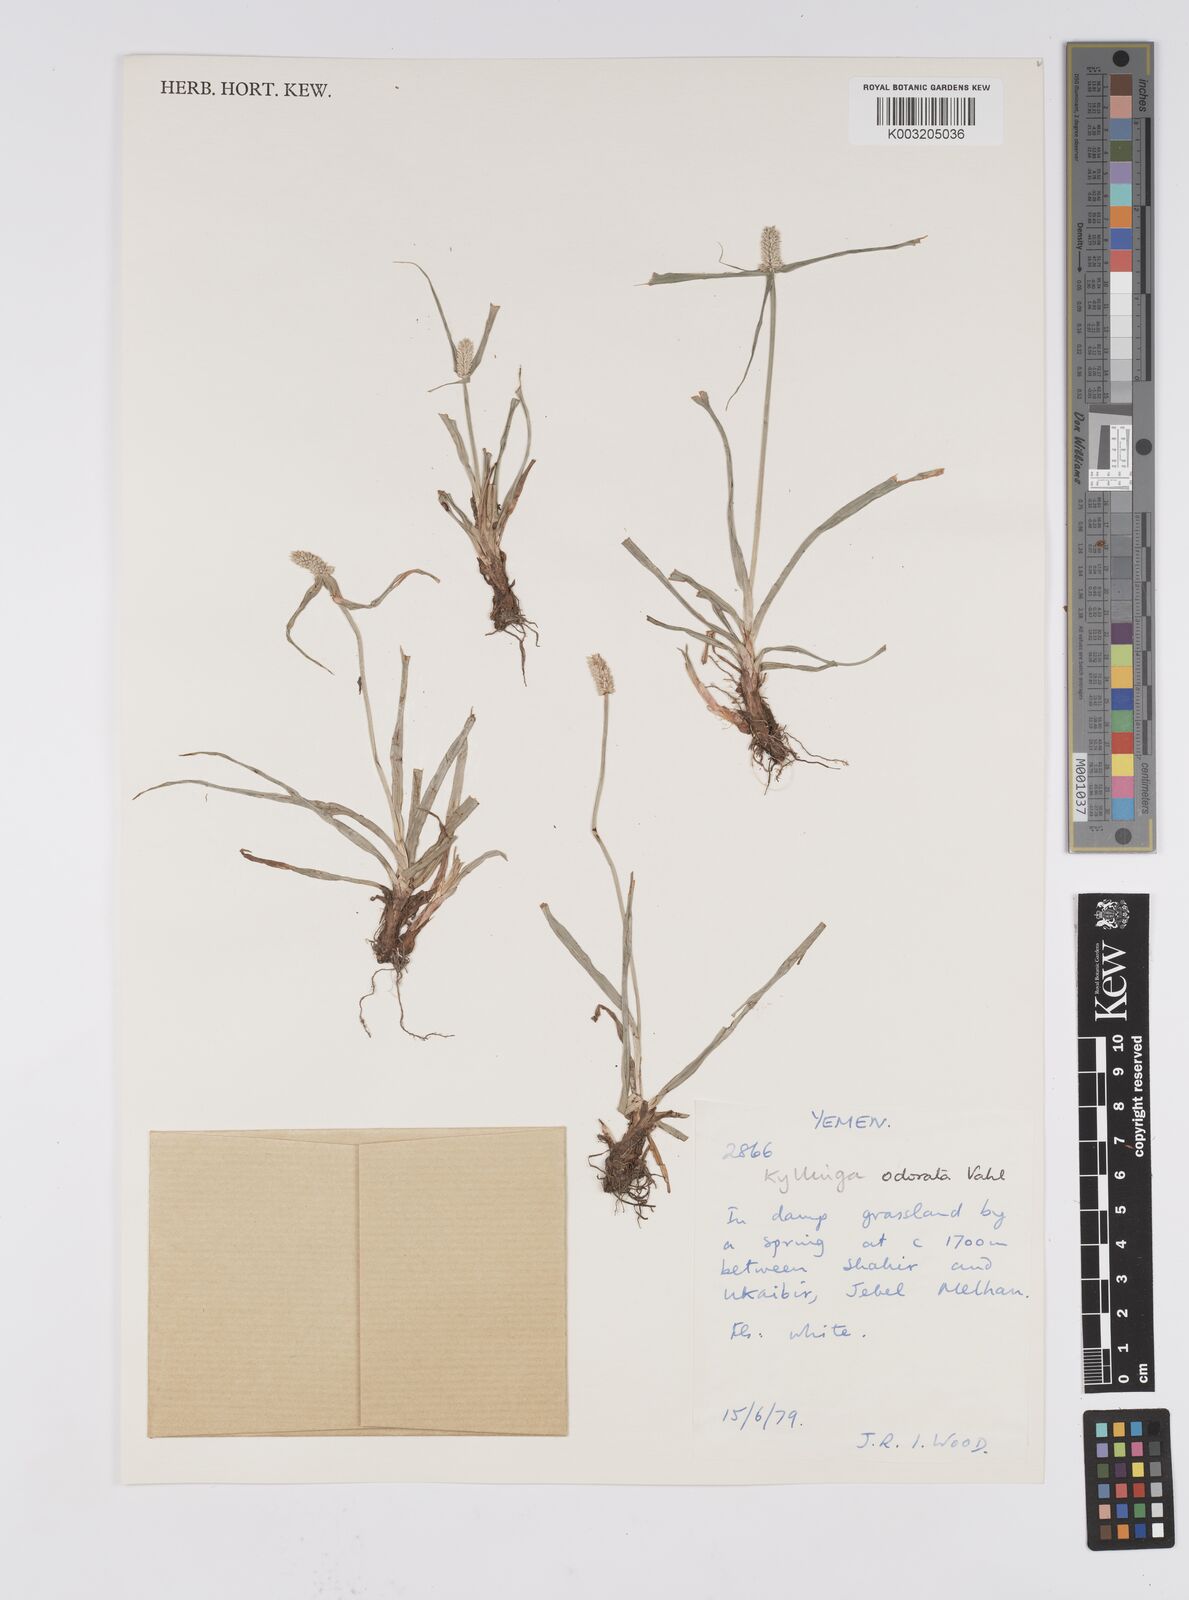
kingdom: Plantae
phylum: Tracheophyta
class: Liliopsida
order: Poales
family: Cyperaceae
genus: Cyperus
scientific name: Cyperus
